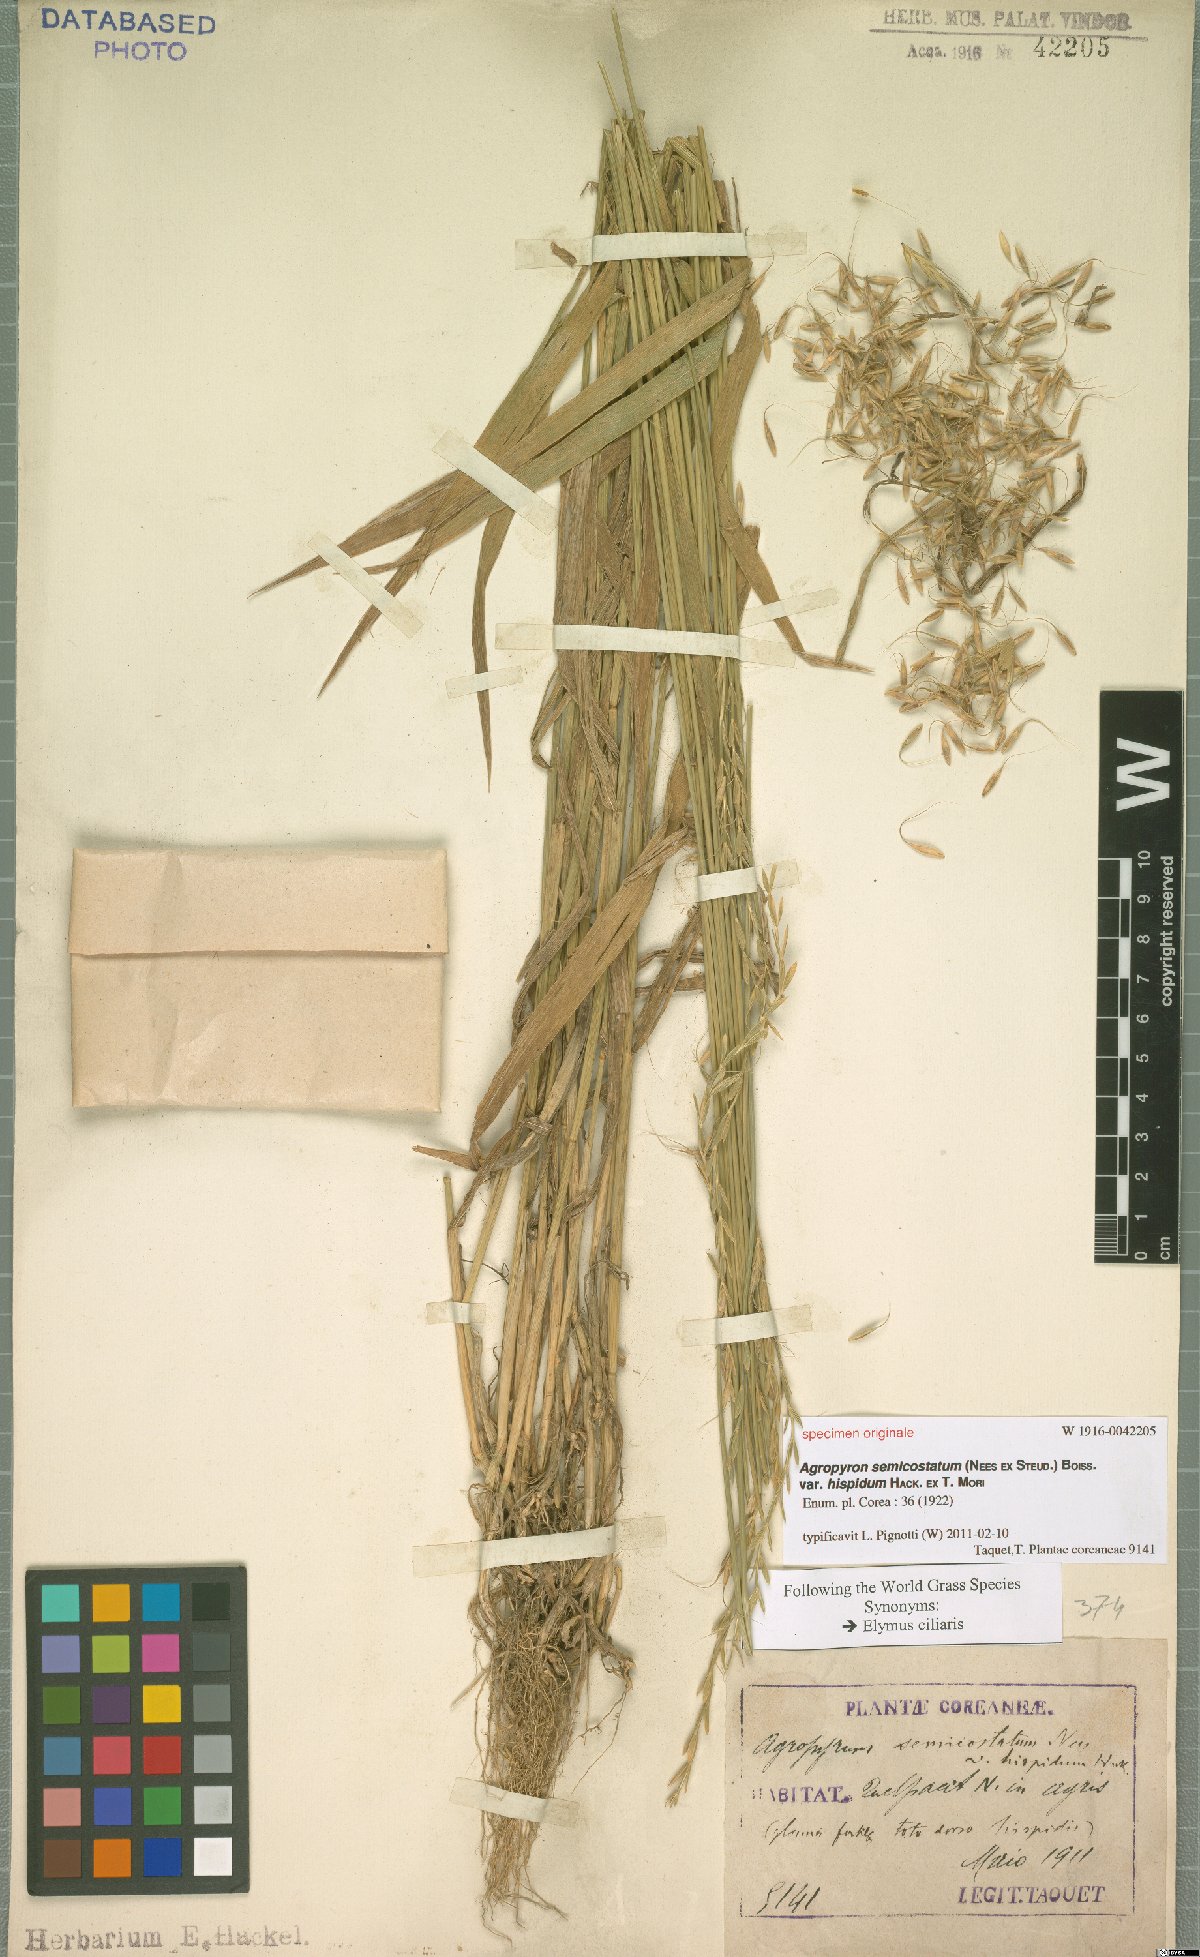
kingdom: Plantae
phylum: Tracheophyta
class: Liliopsida
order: Poales
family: Poaceae
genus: Elymus
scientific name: Elymus ciliaris
